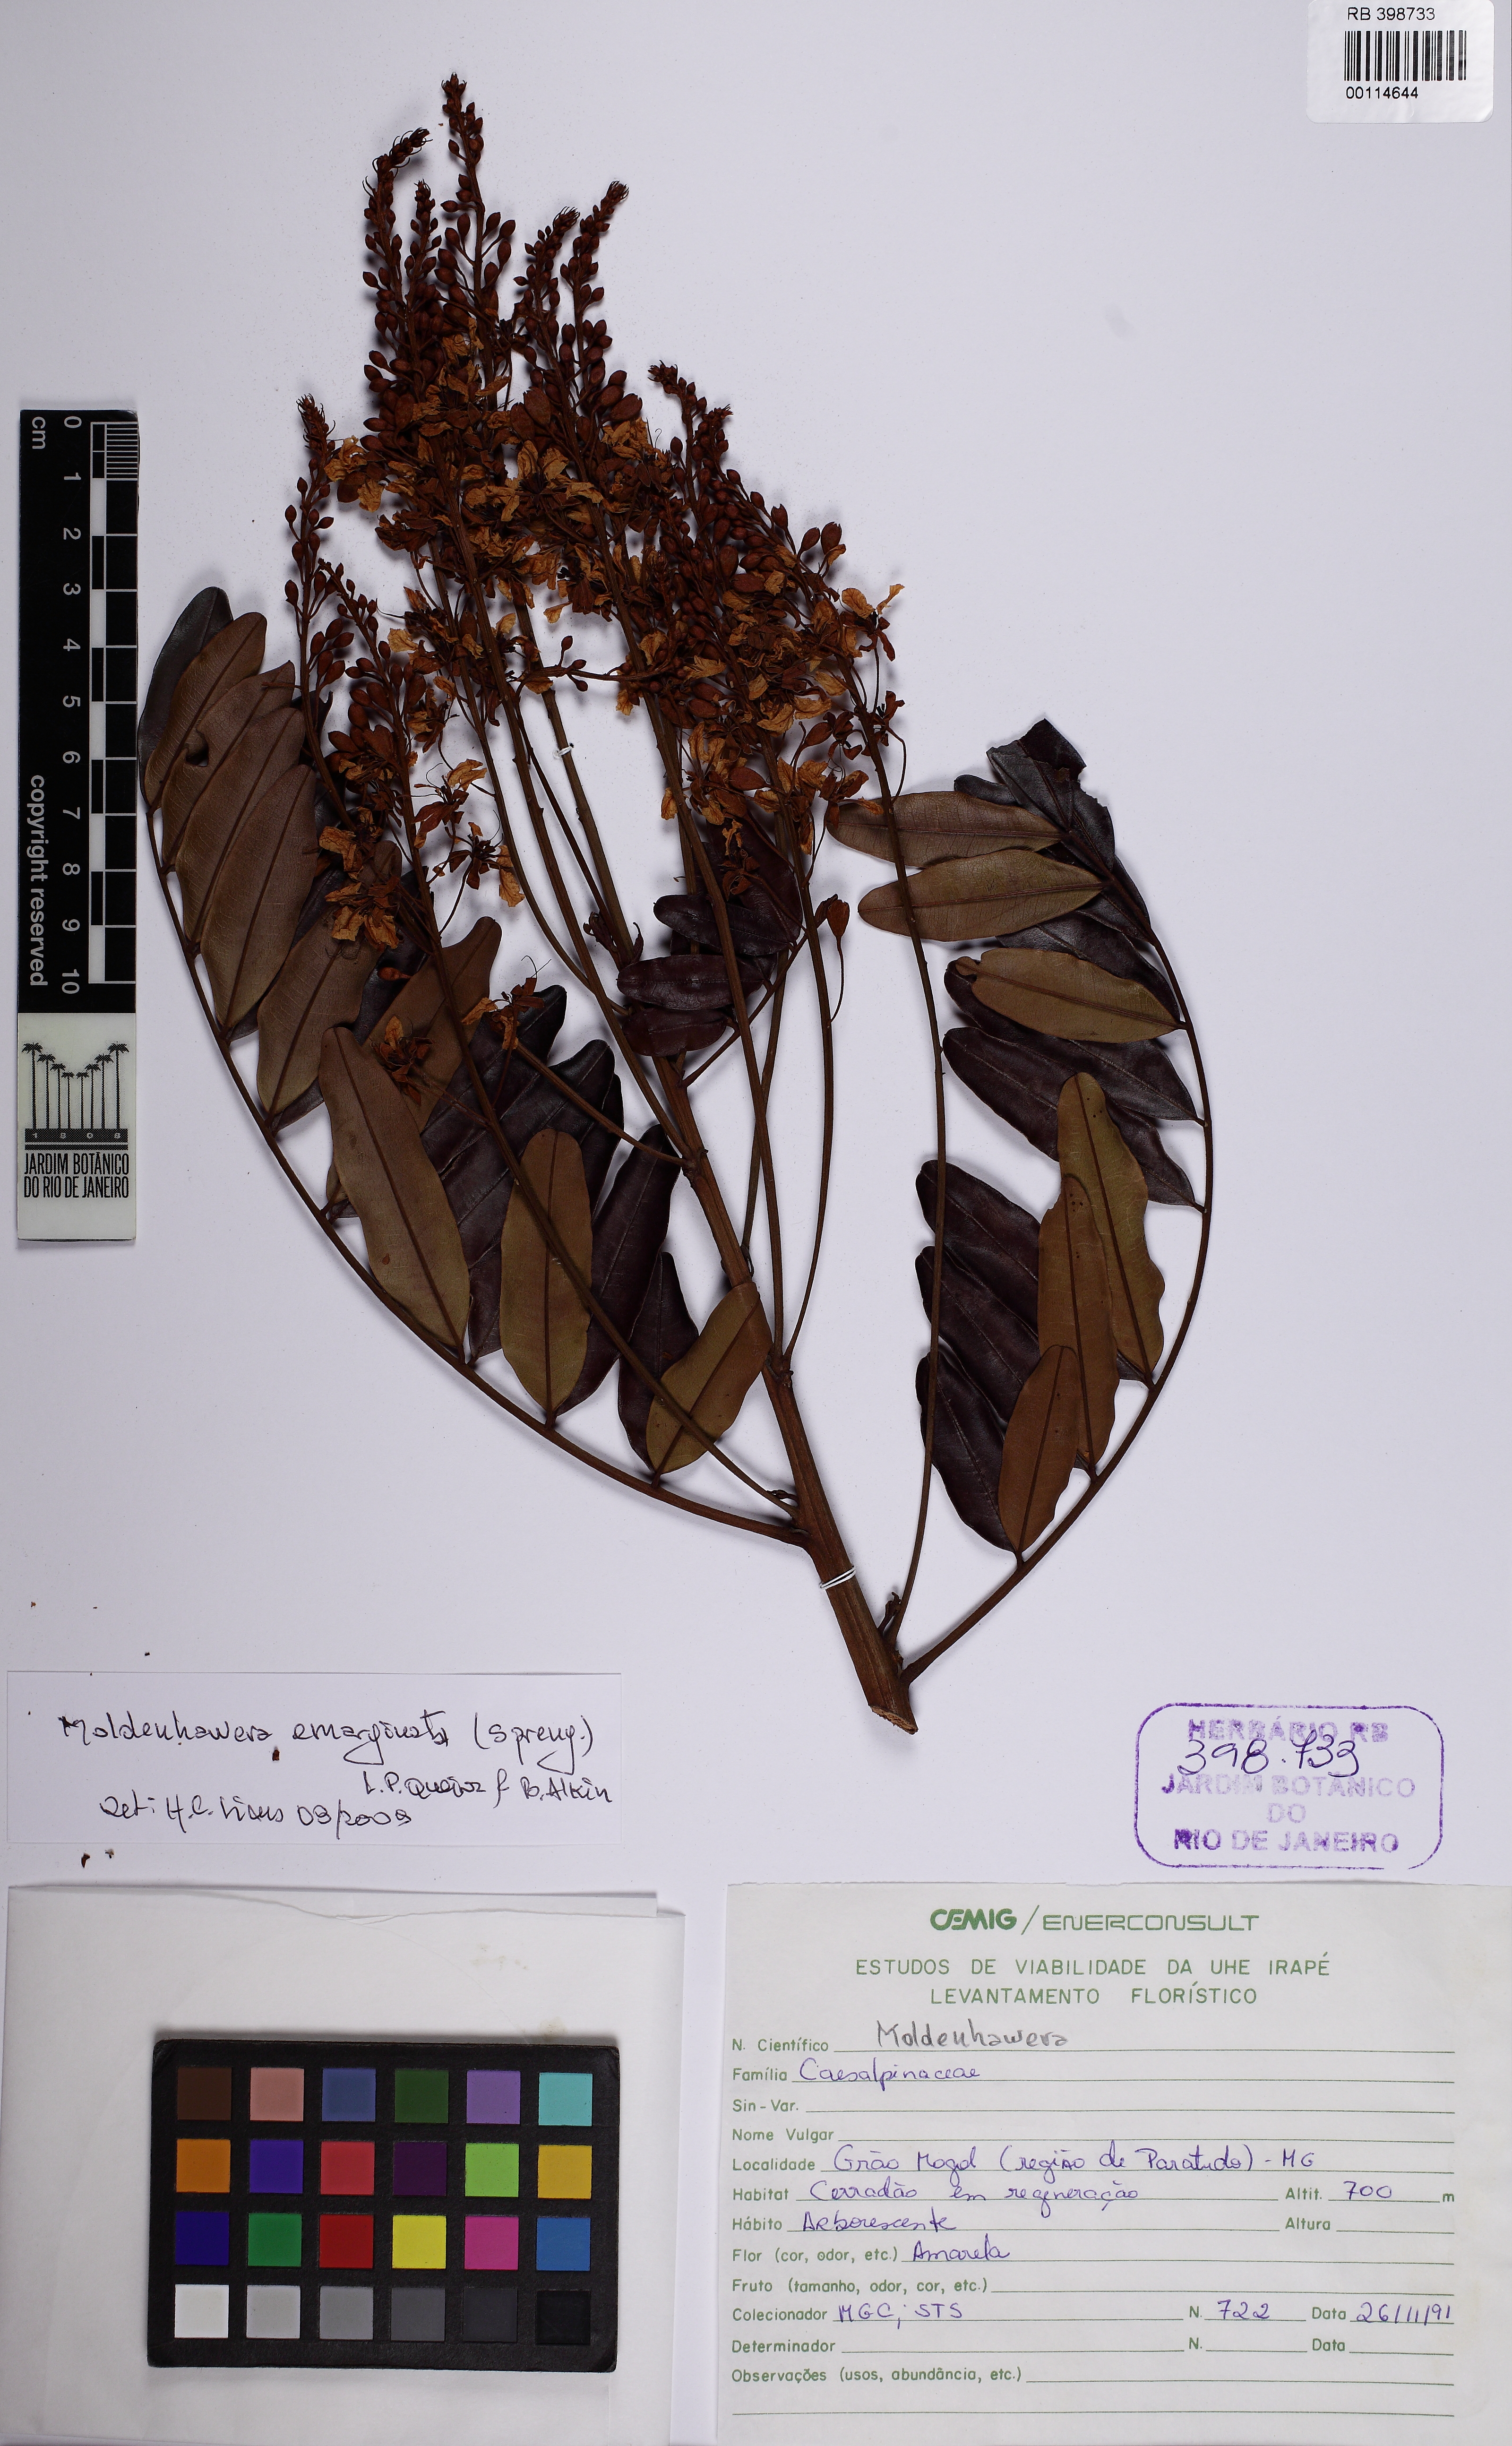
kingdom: Plantae
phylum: Tracheophyta
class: Magnoliopsida
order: Fabales
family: Fabaceae
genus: Moldenhawera
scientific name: Moldenhawera
